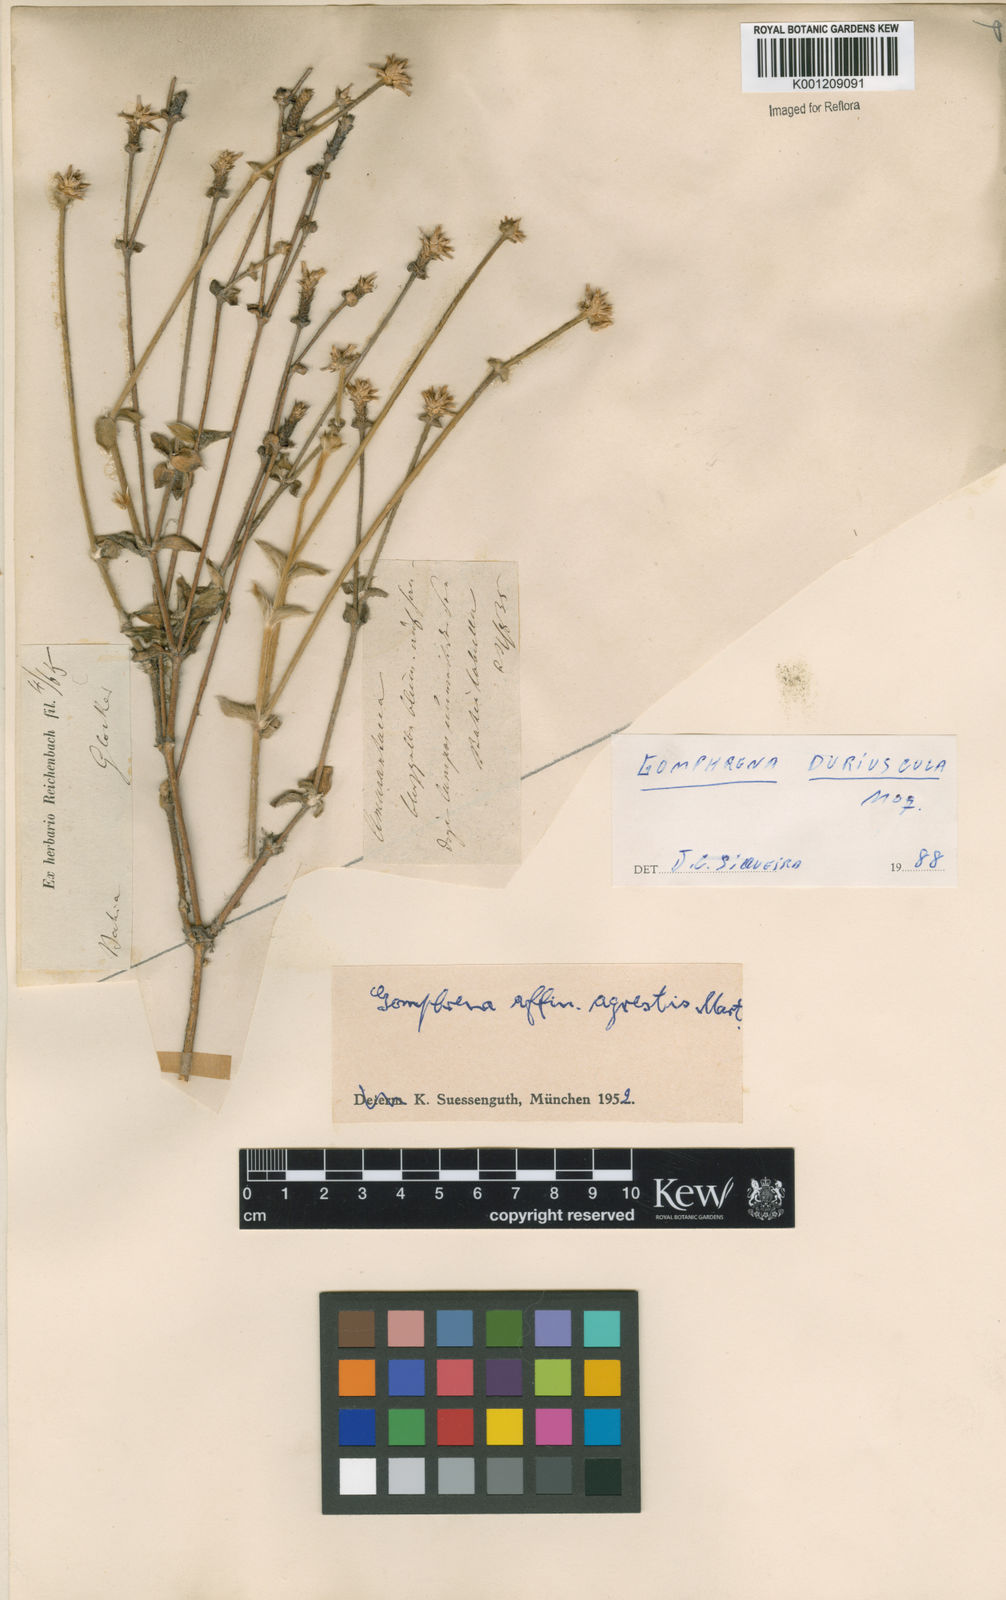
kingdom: Plantae
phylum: Tracheophyta
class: Magnoliopsida
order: Caryophyllales
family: Amaranthaceae
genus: Gomphrena
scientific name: Gomphrena agrestis
